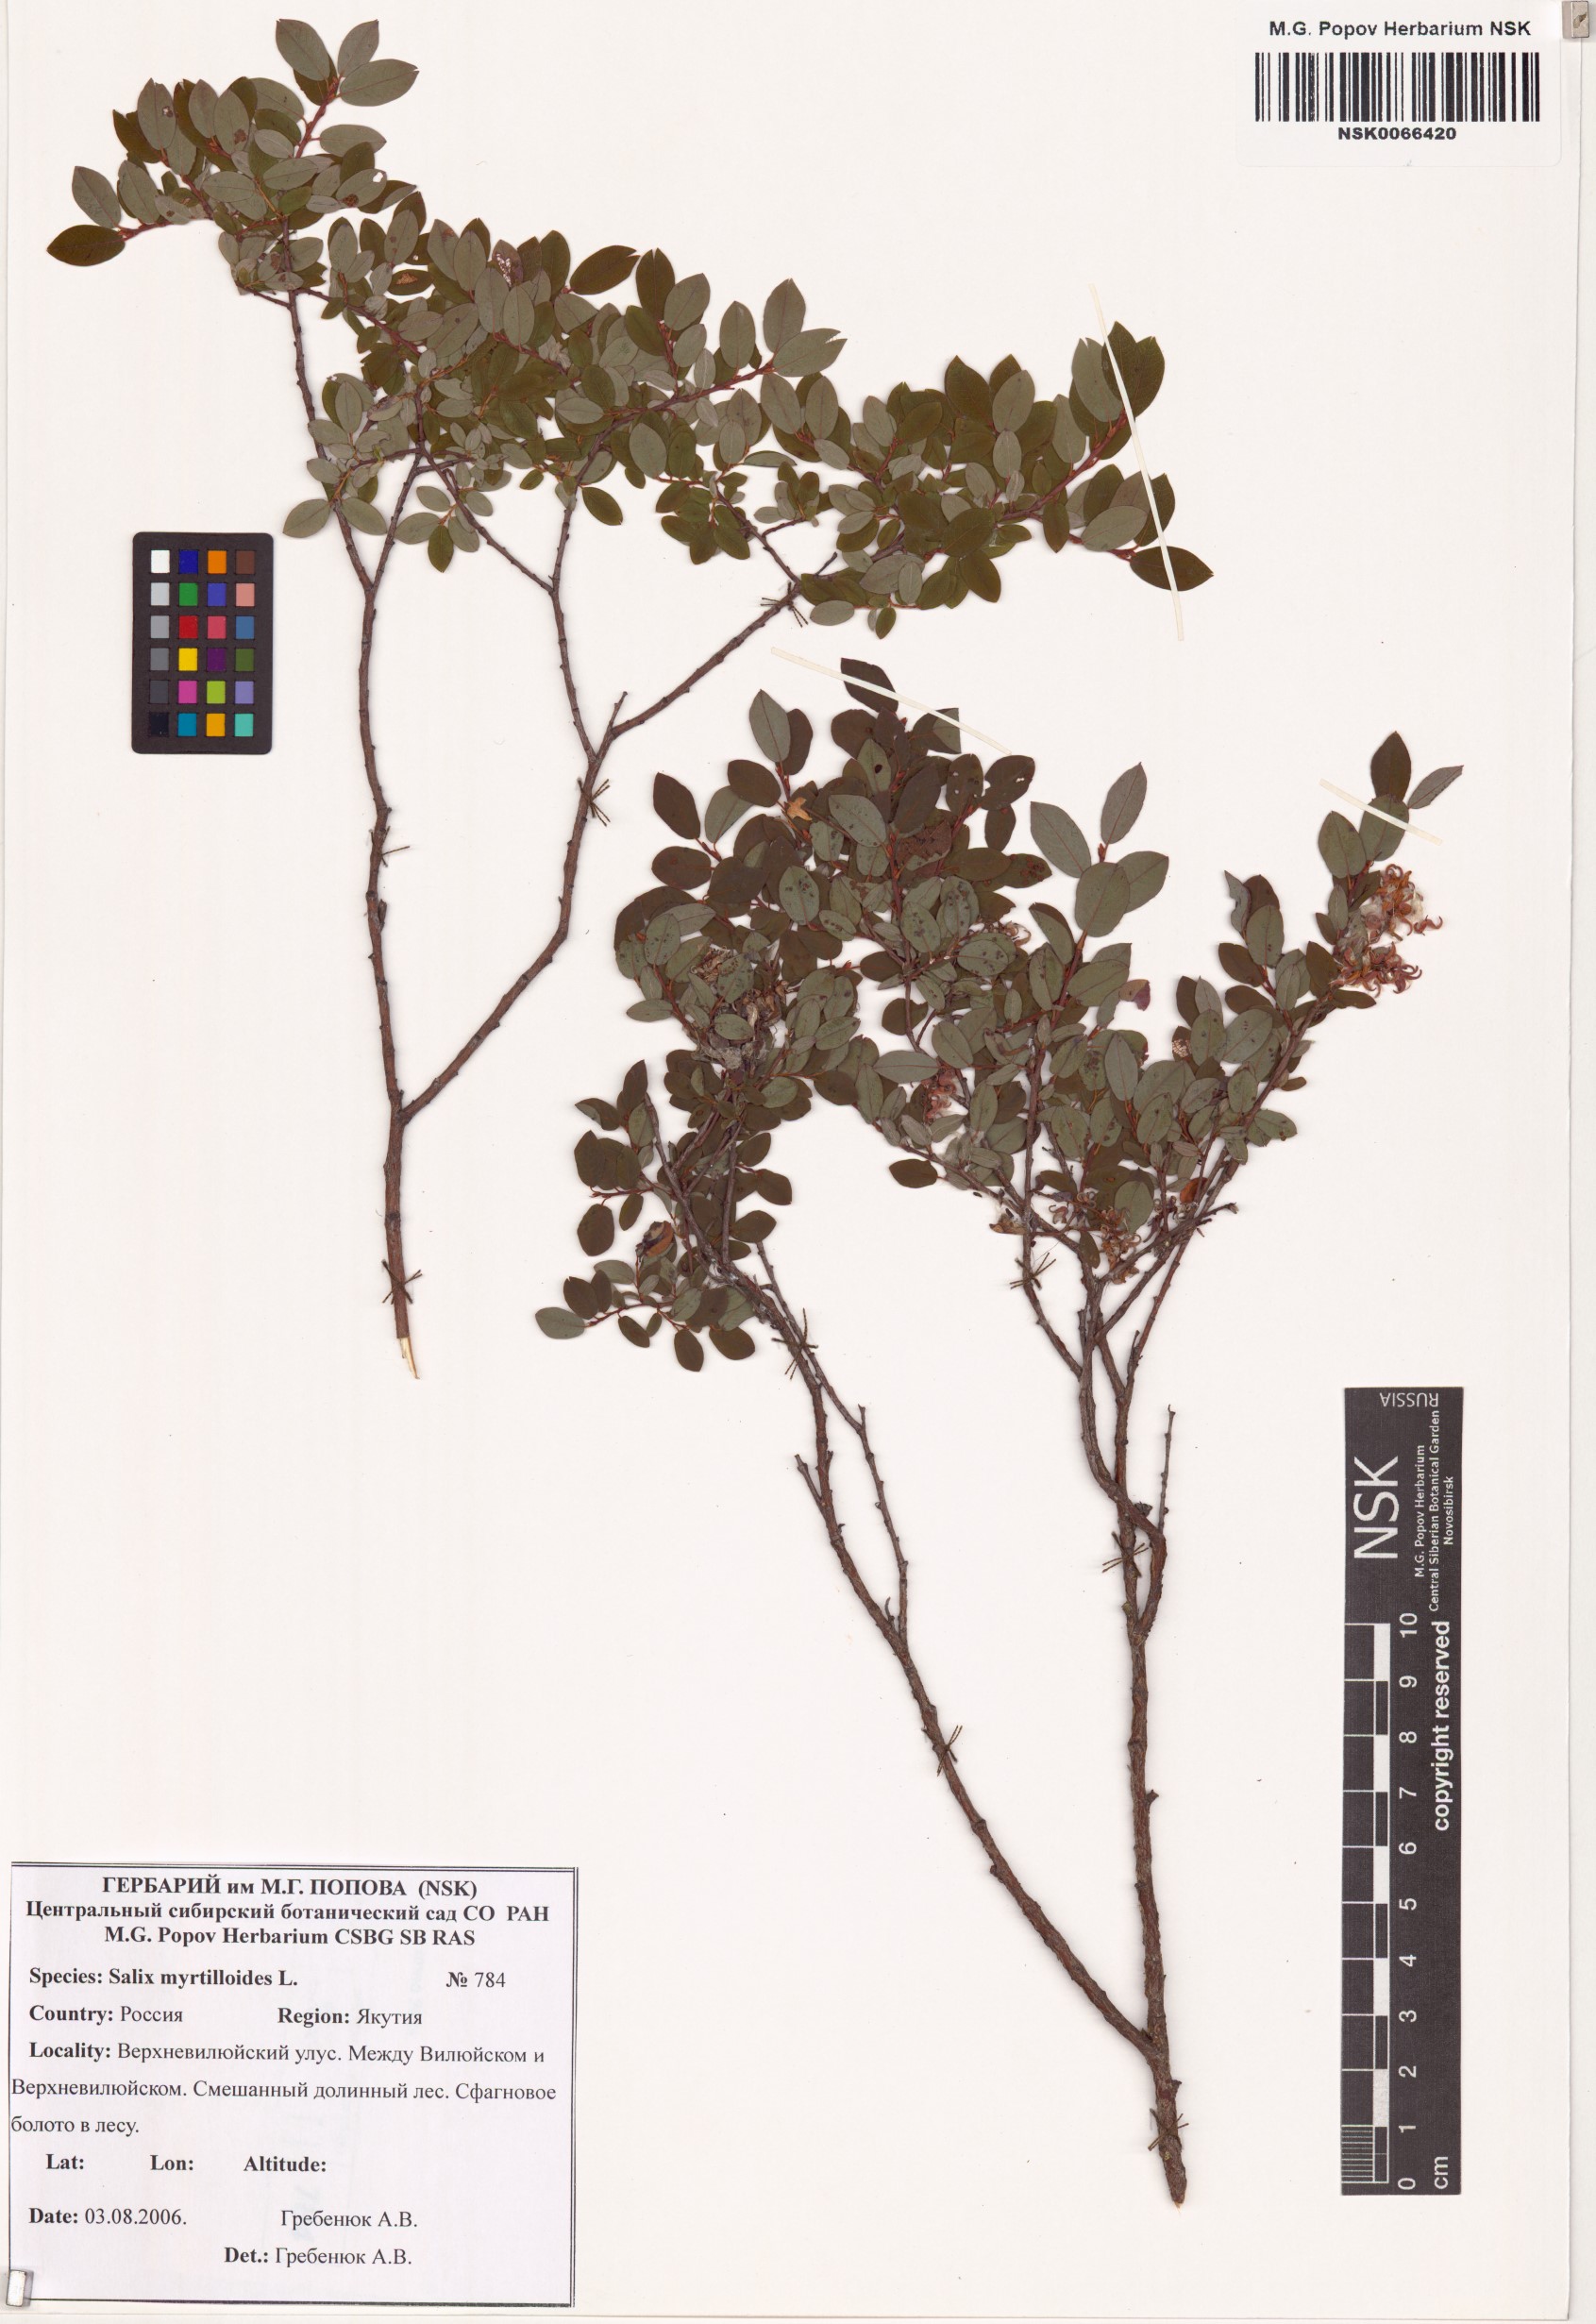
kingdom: Plantae
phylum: Tracheophyta
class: Magnoliopsida
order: Malpighiales
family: Salicaceae
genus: Salix
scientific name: Salix myrtilloides
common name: Myrtle-leaved willow
